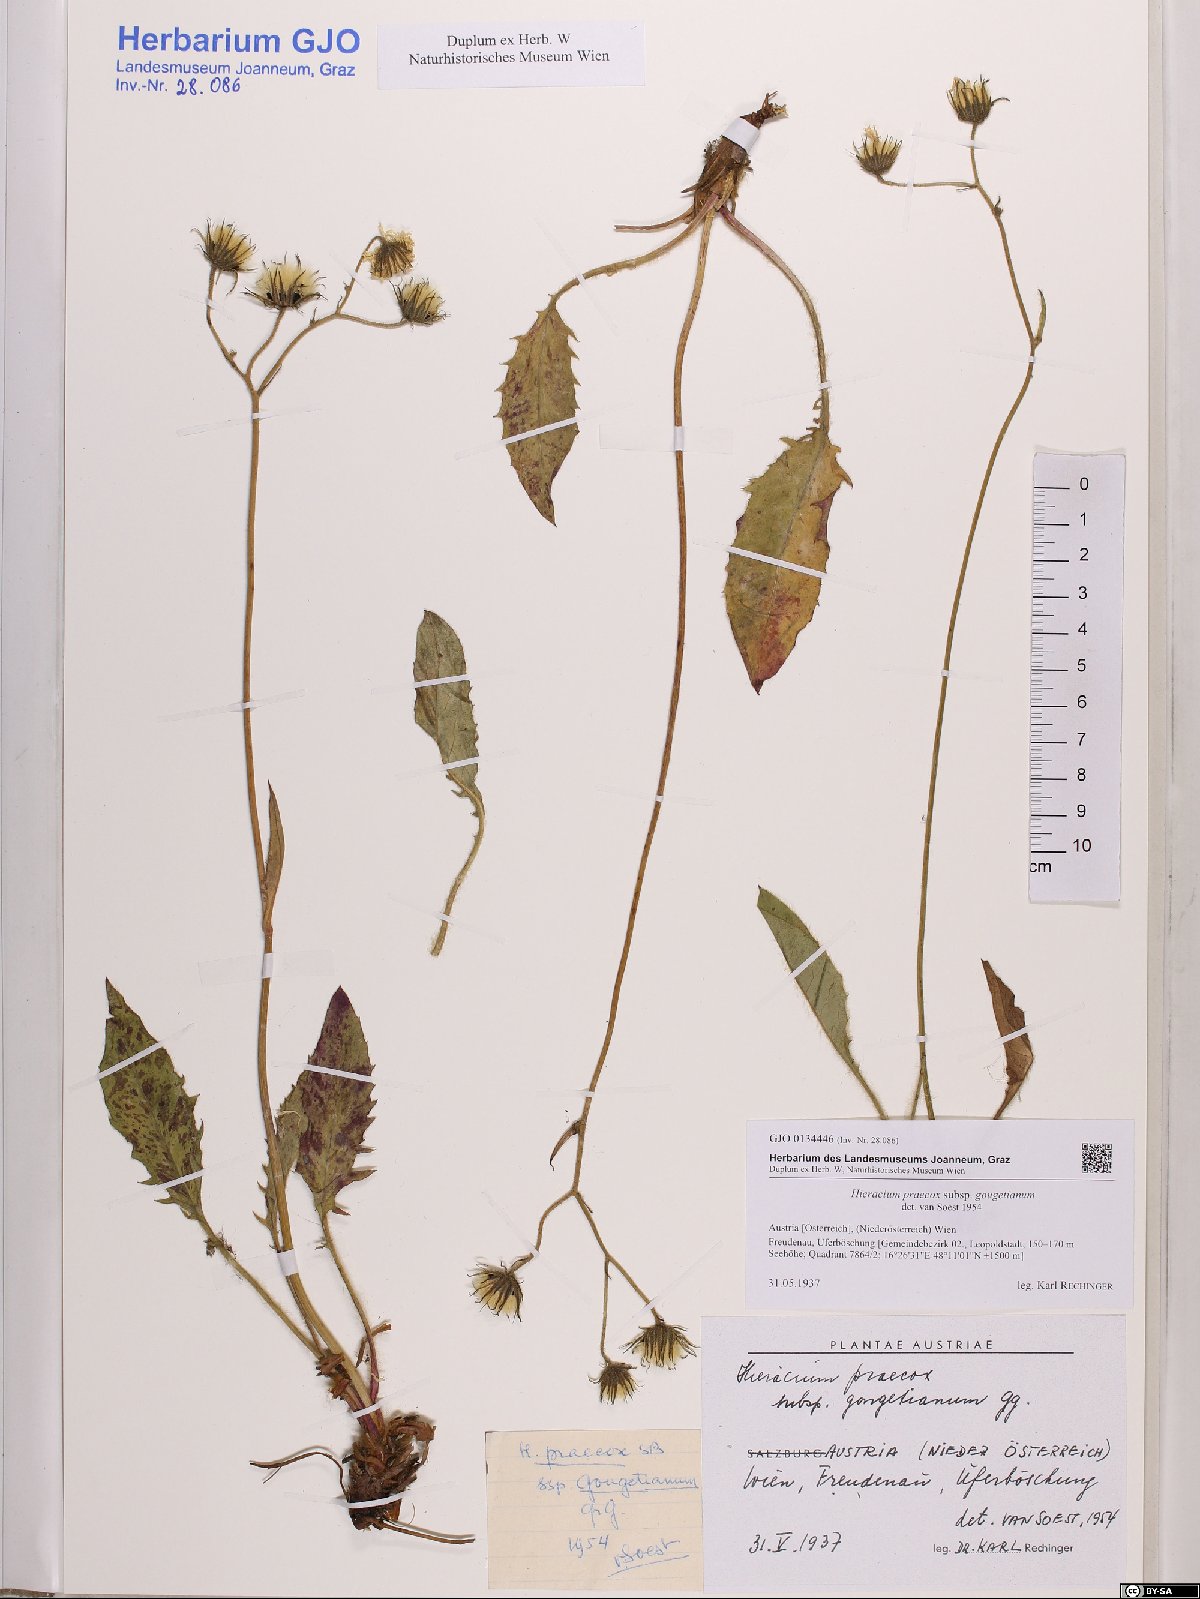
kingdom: Plantae
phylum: Tracheophyta
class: Magnoliopsida
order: Asterales
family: Asteraceae
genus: Hieracium
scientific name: Hieracium glaucinum
